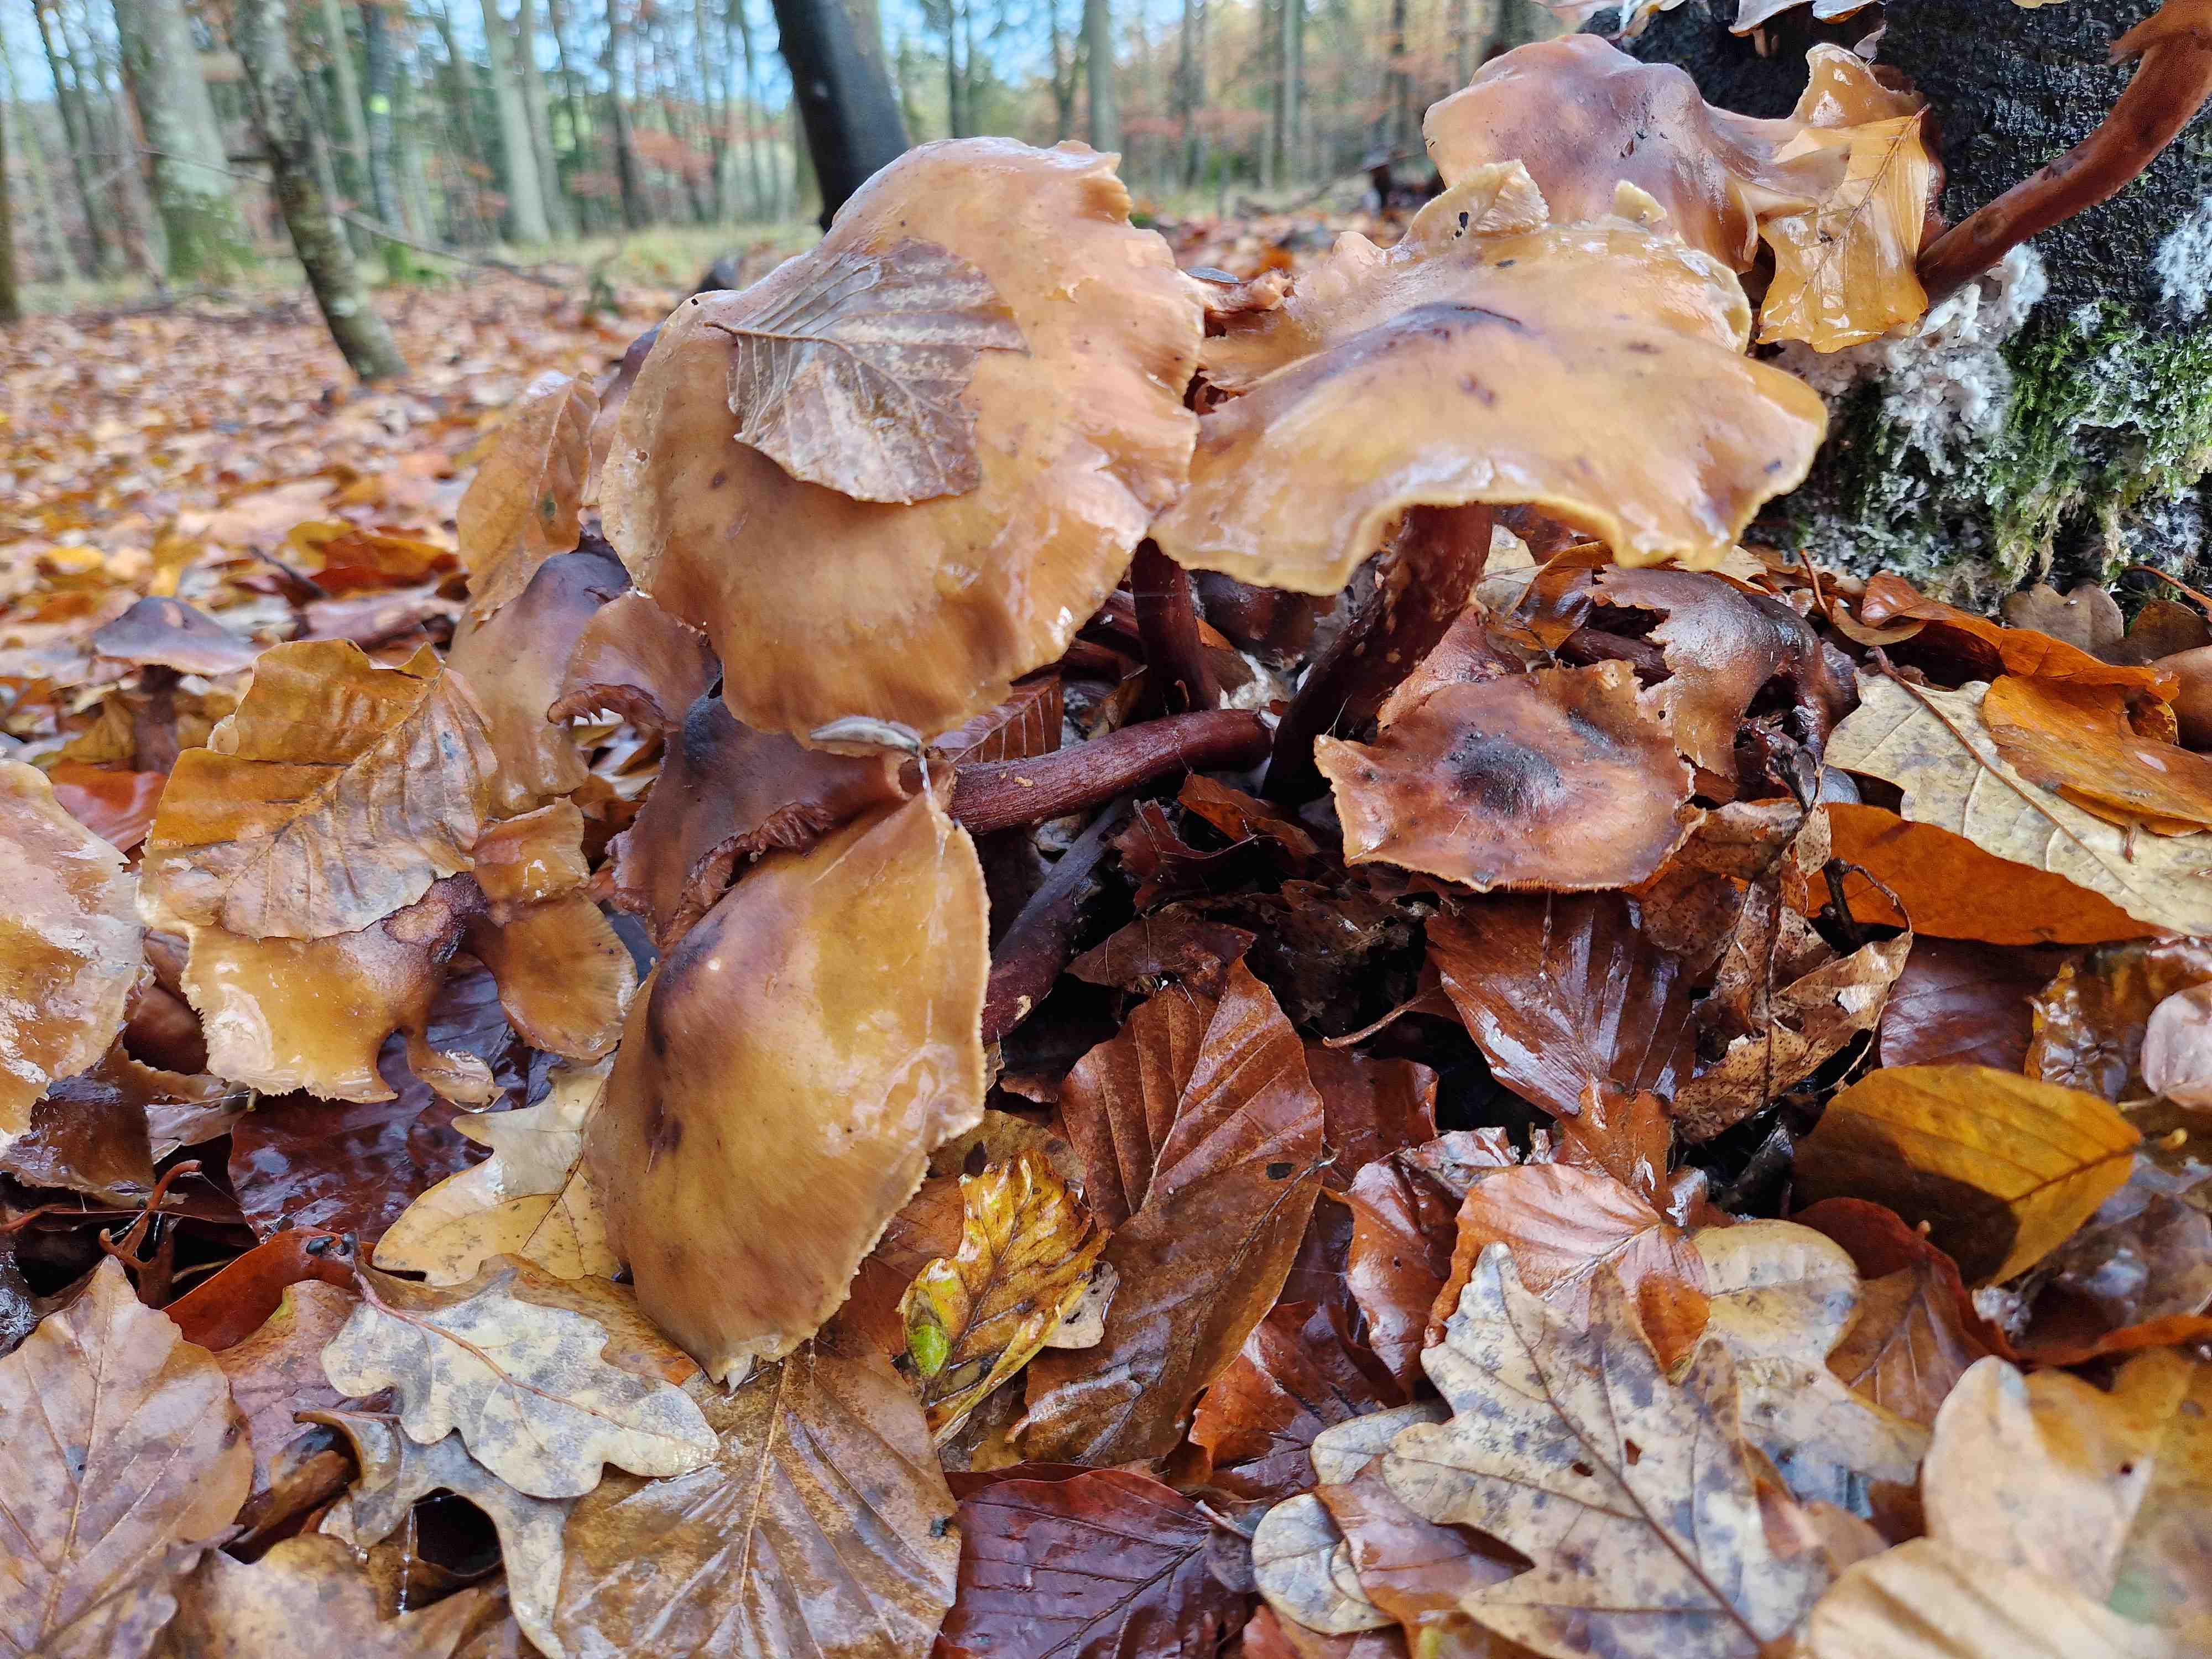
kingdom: Fungi
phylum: Basidiomycota
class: Agaricomycetes
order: Agaricales
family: Physalacriaceae
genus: Armillaria
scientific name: Armillaria mellea
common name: ægte honningsvamp
